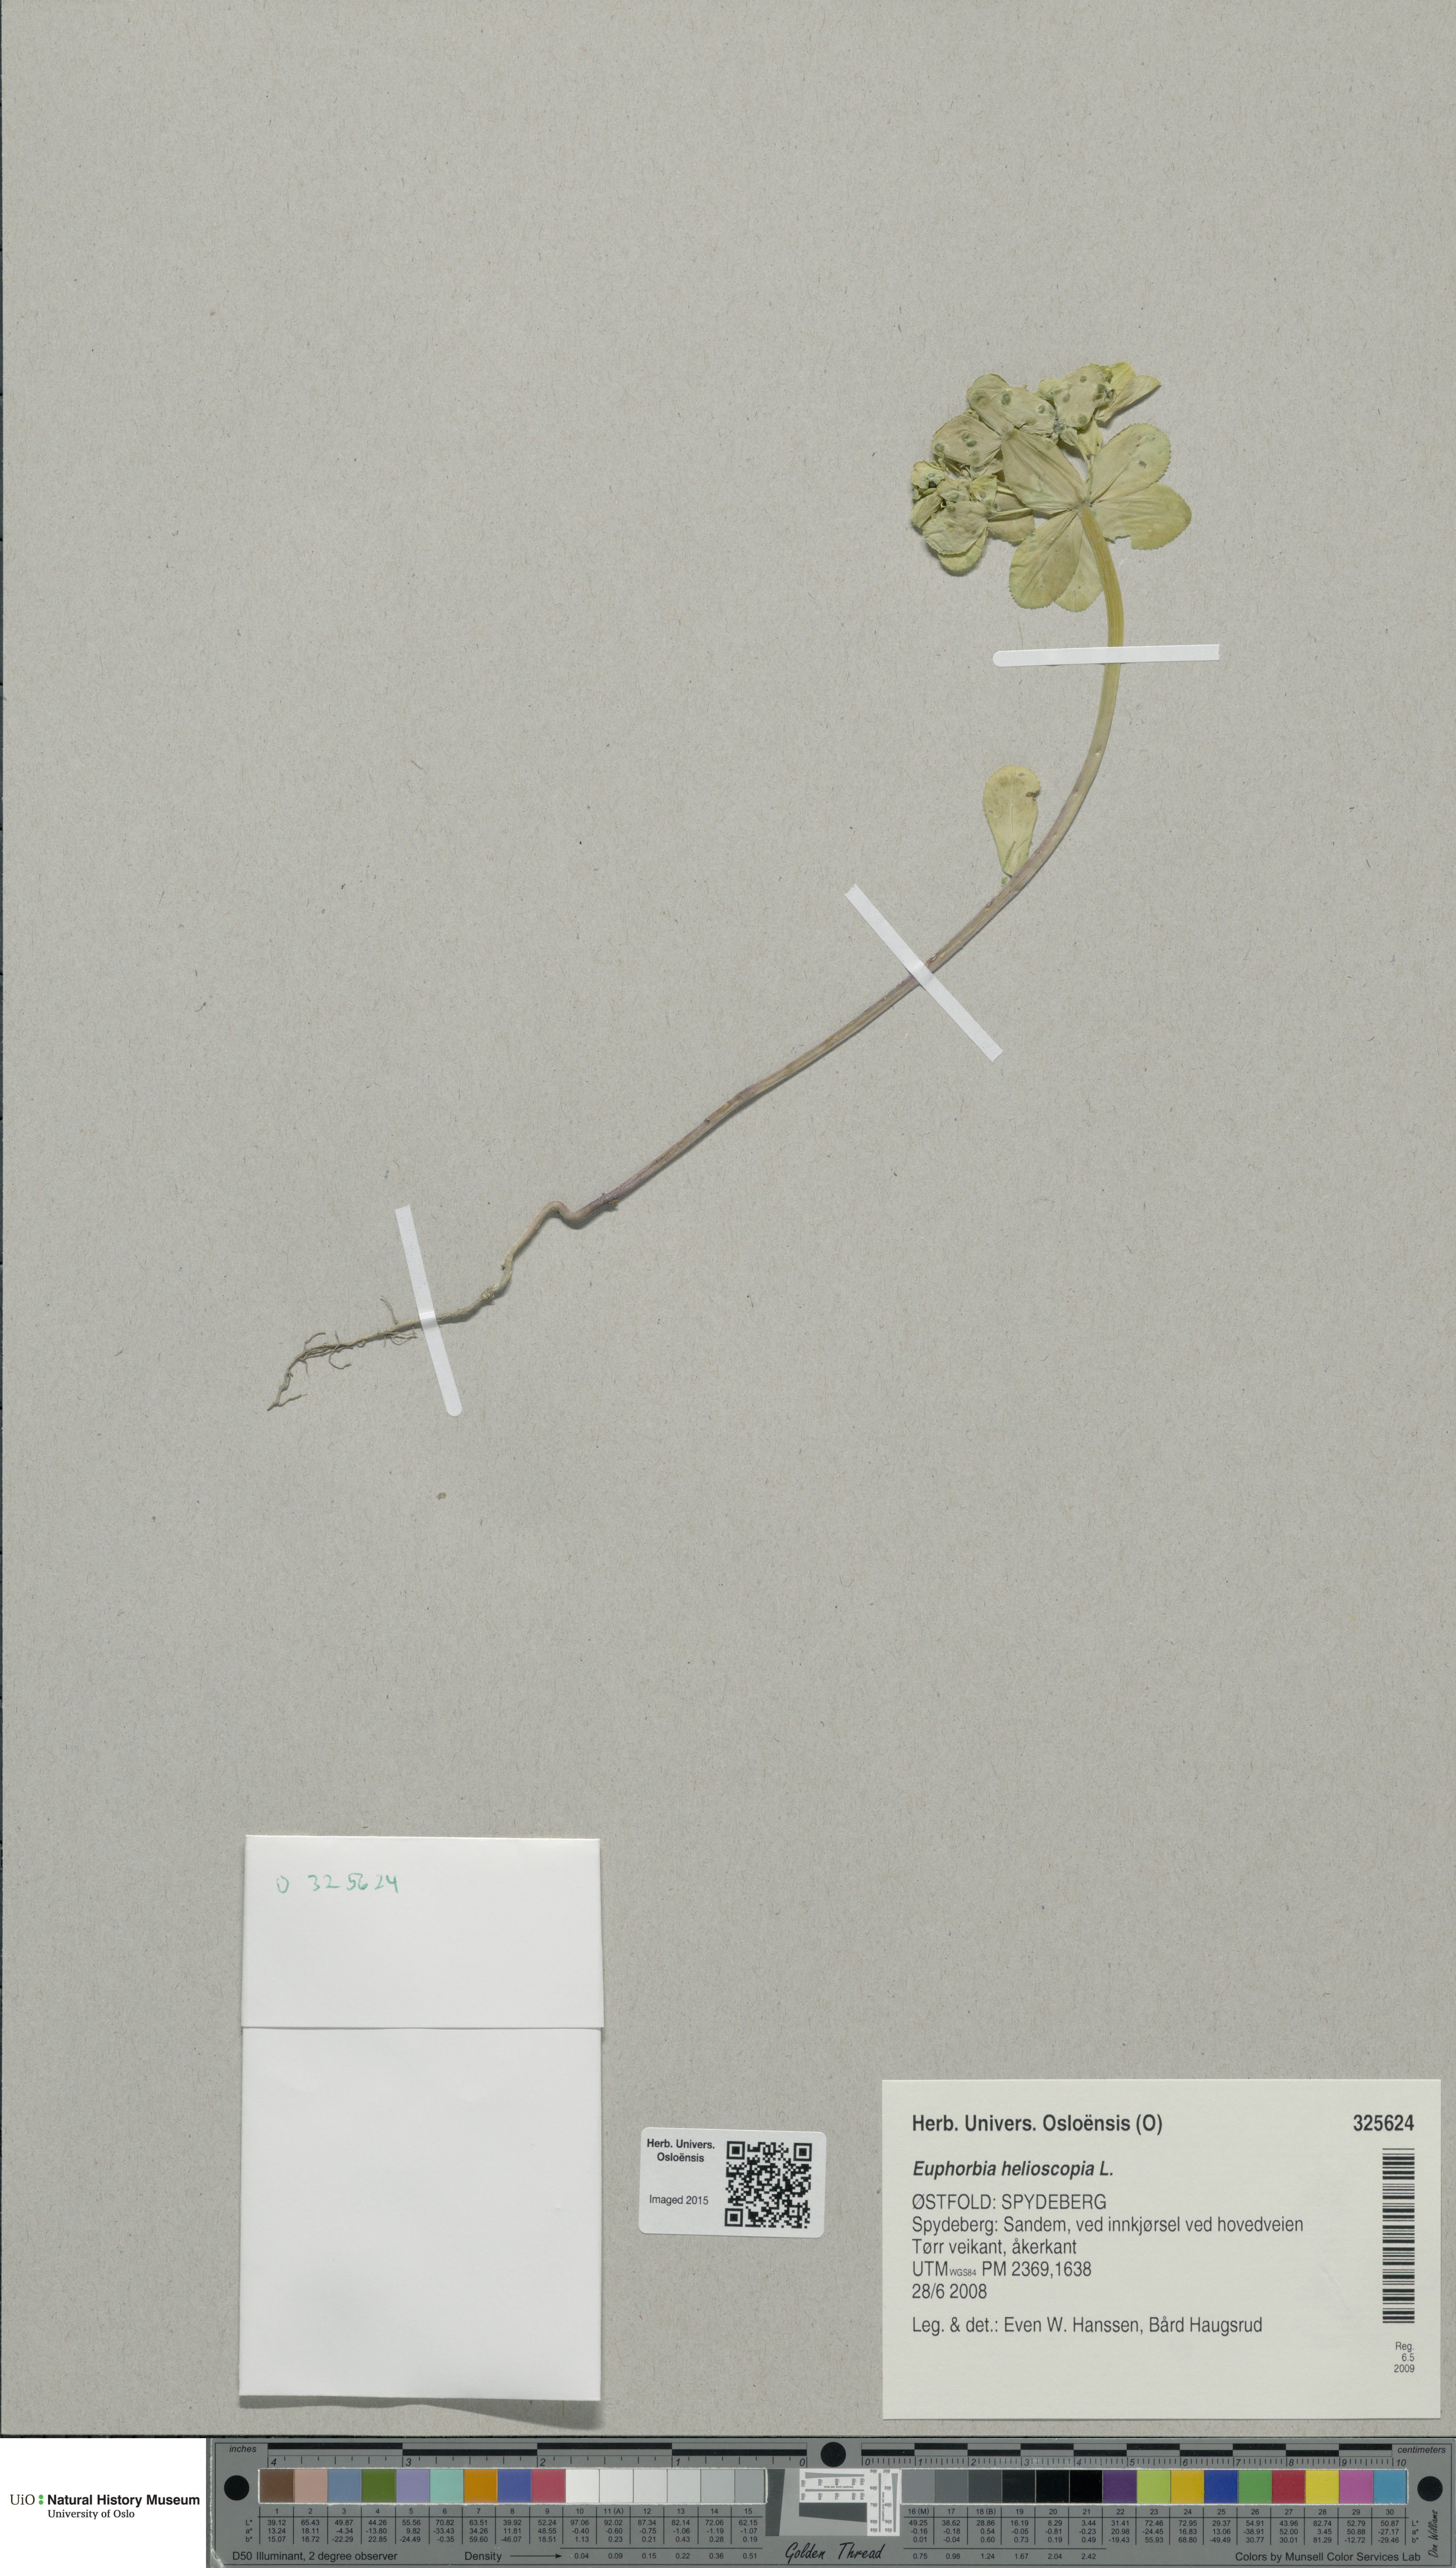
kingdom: Plantae
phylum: Tracheophyta
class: Magnoliopsida
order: Malpighiales
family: Euphorbiaceae
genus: Euphorbia
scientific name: Euphorbia helioscopia
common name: Sun spurge
